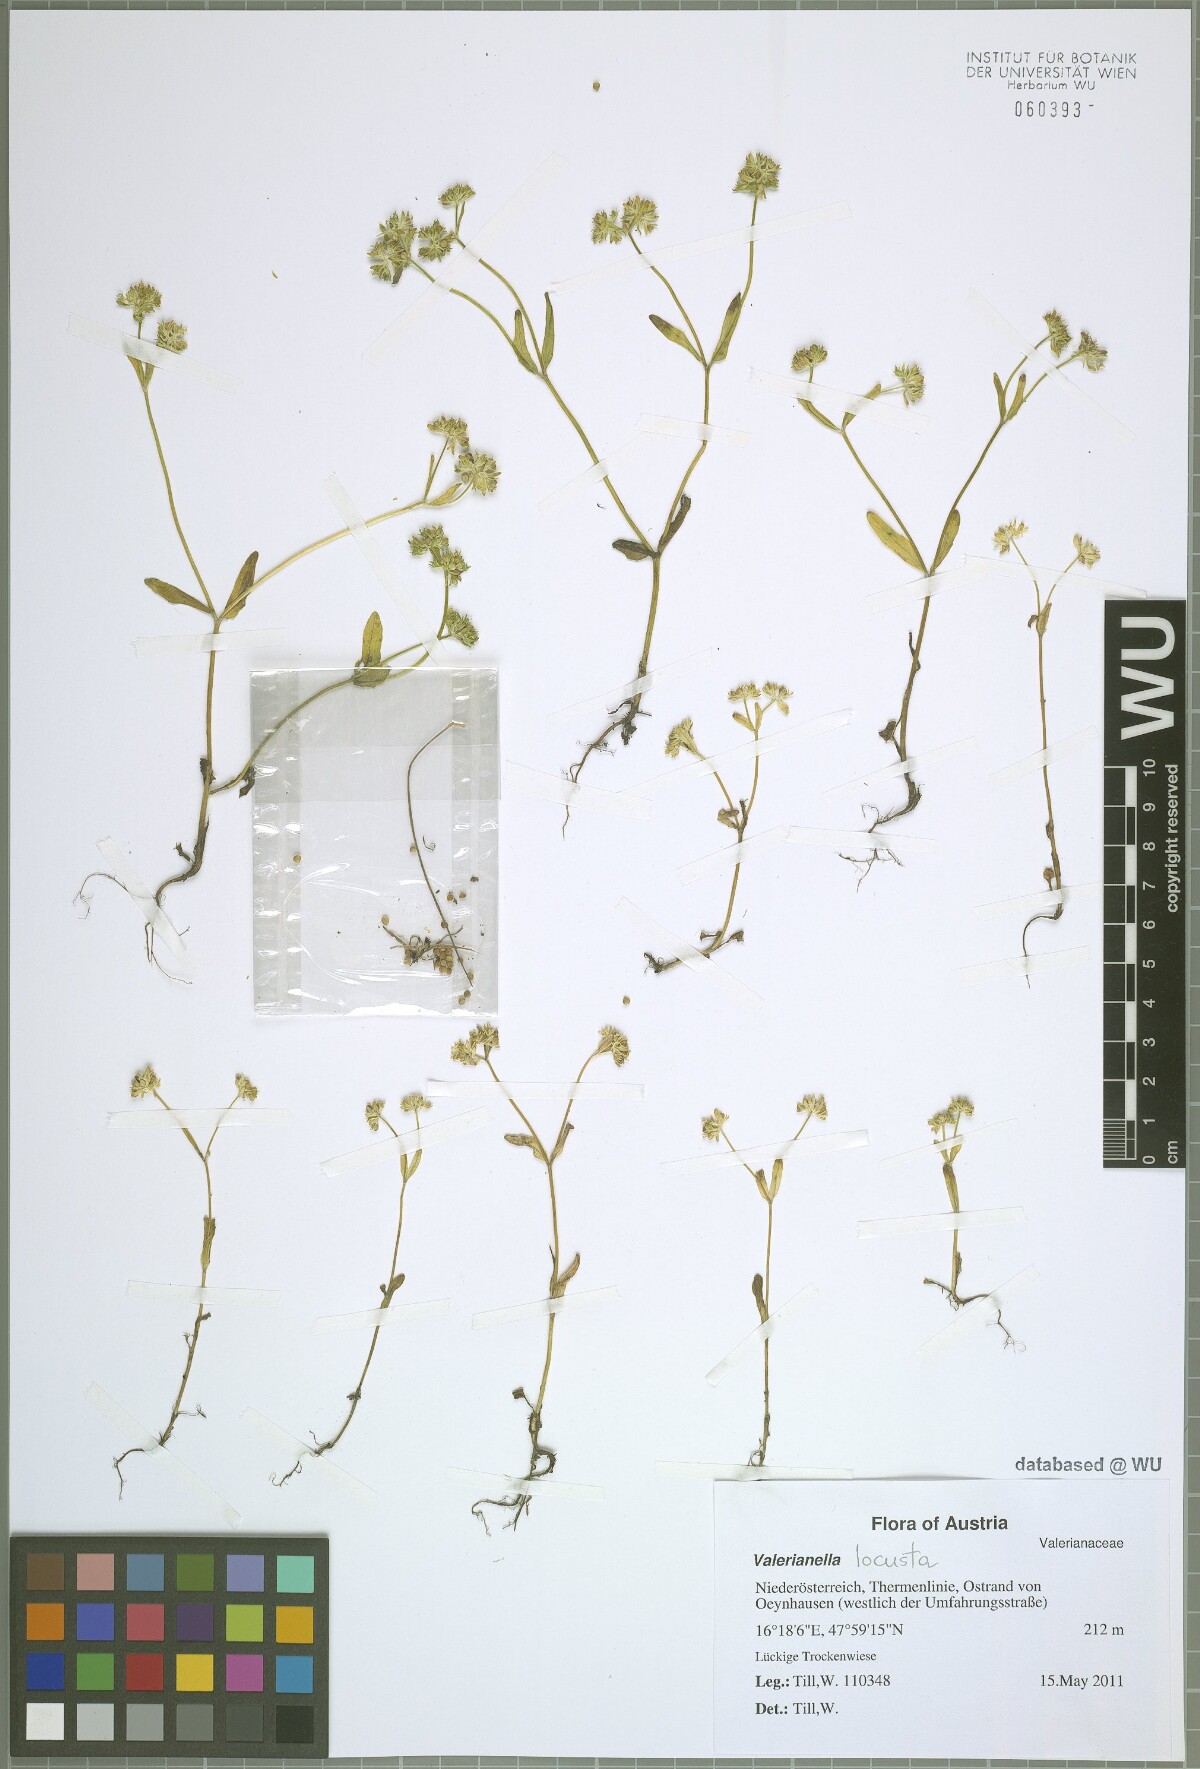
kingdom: Plantae
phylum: Tracheophyta
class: Magnoliopsida
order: Dipsacales
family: Caprifoliaceae
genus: Valerianella
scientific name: Valerianella locusta
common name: Common cornsalad
